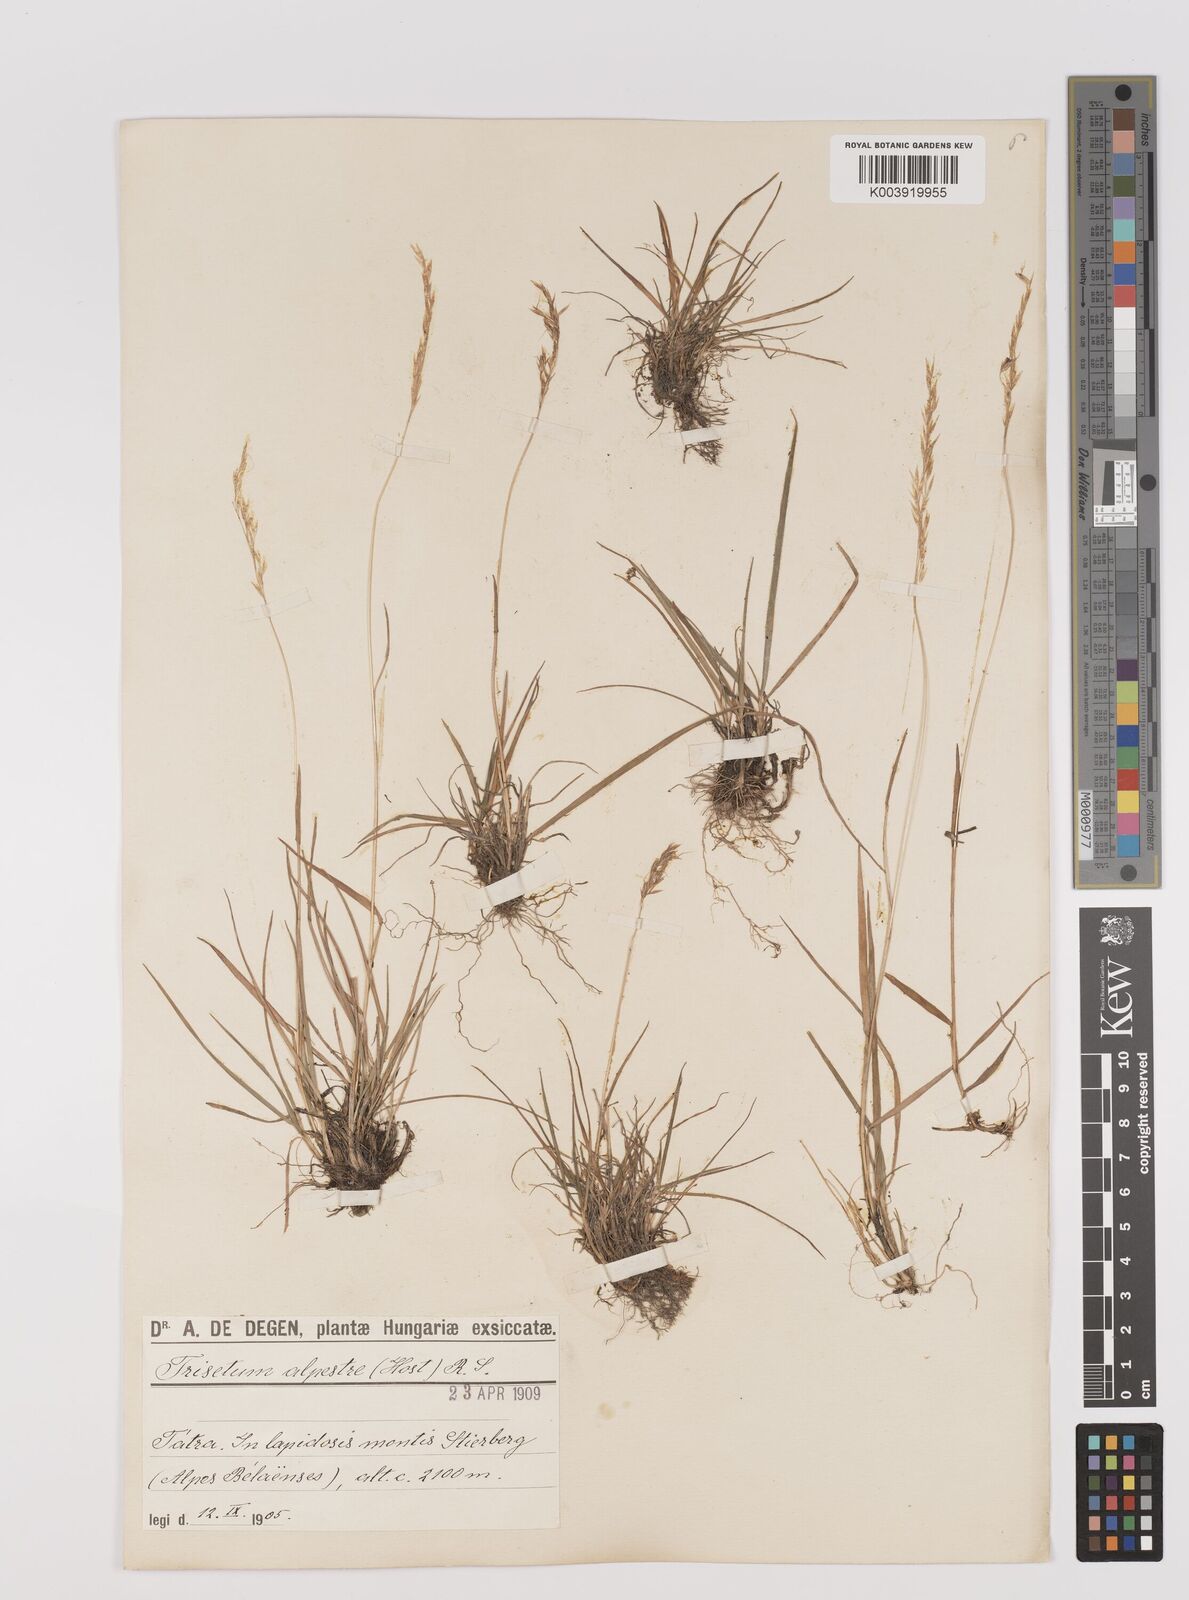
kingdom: Plantae
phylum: Tracheophyta
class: Liliopsida
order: Poales
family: Poaceae
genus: Trisetum
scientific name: Trisetum alpestre
